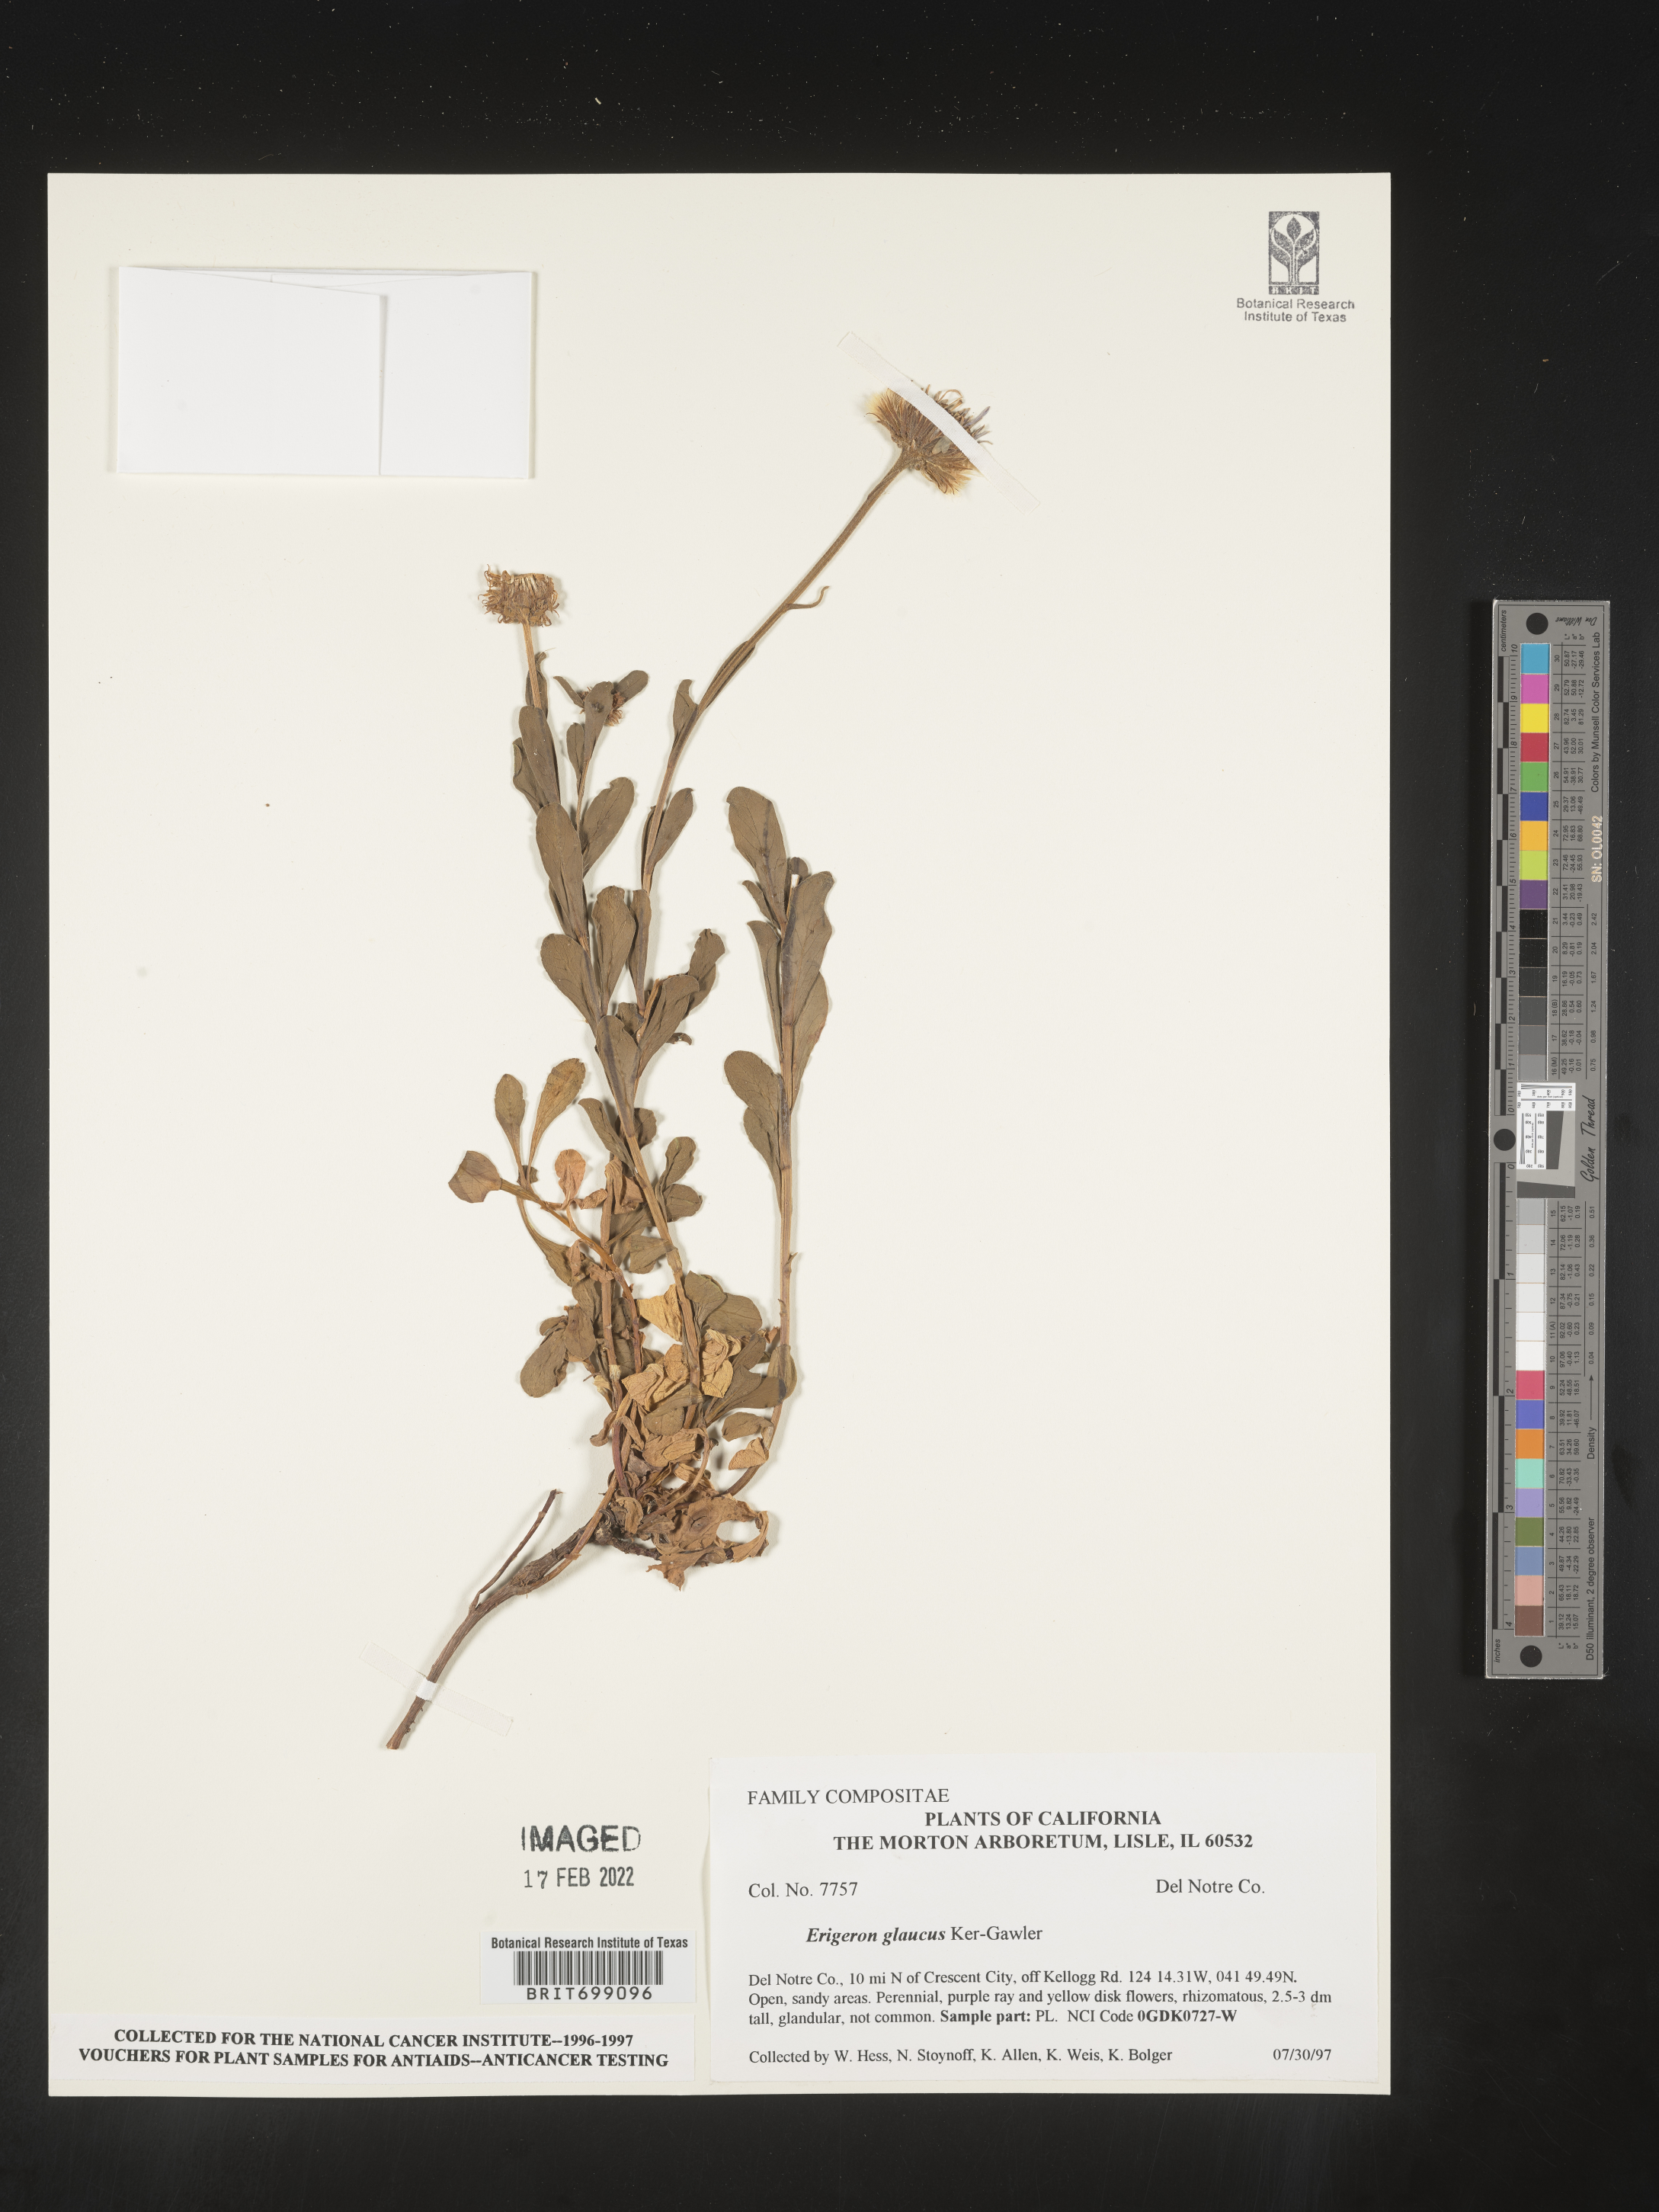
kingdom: Plantae
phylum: Tracheophyta
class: Magnoliopsida
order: Asterales
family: Asteraceae
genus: Erigeron
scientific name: Erigeron glaucus
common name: Seaside daisy
